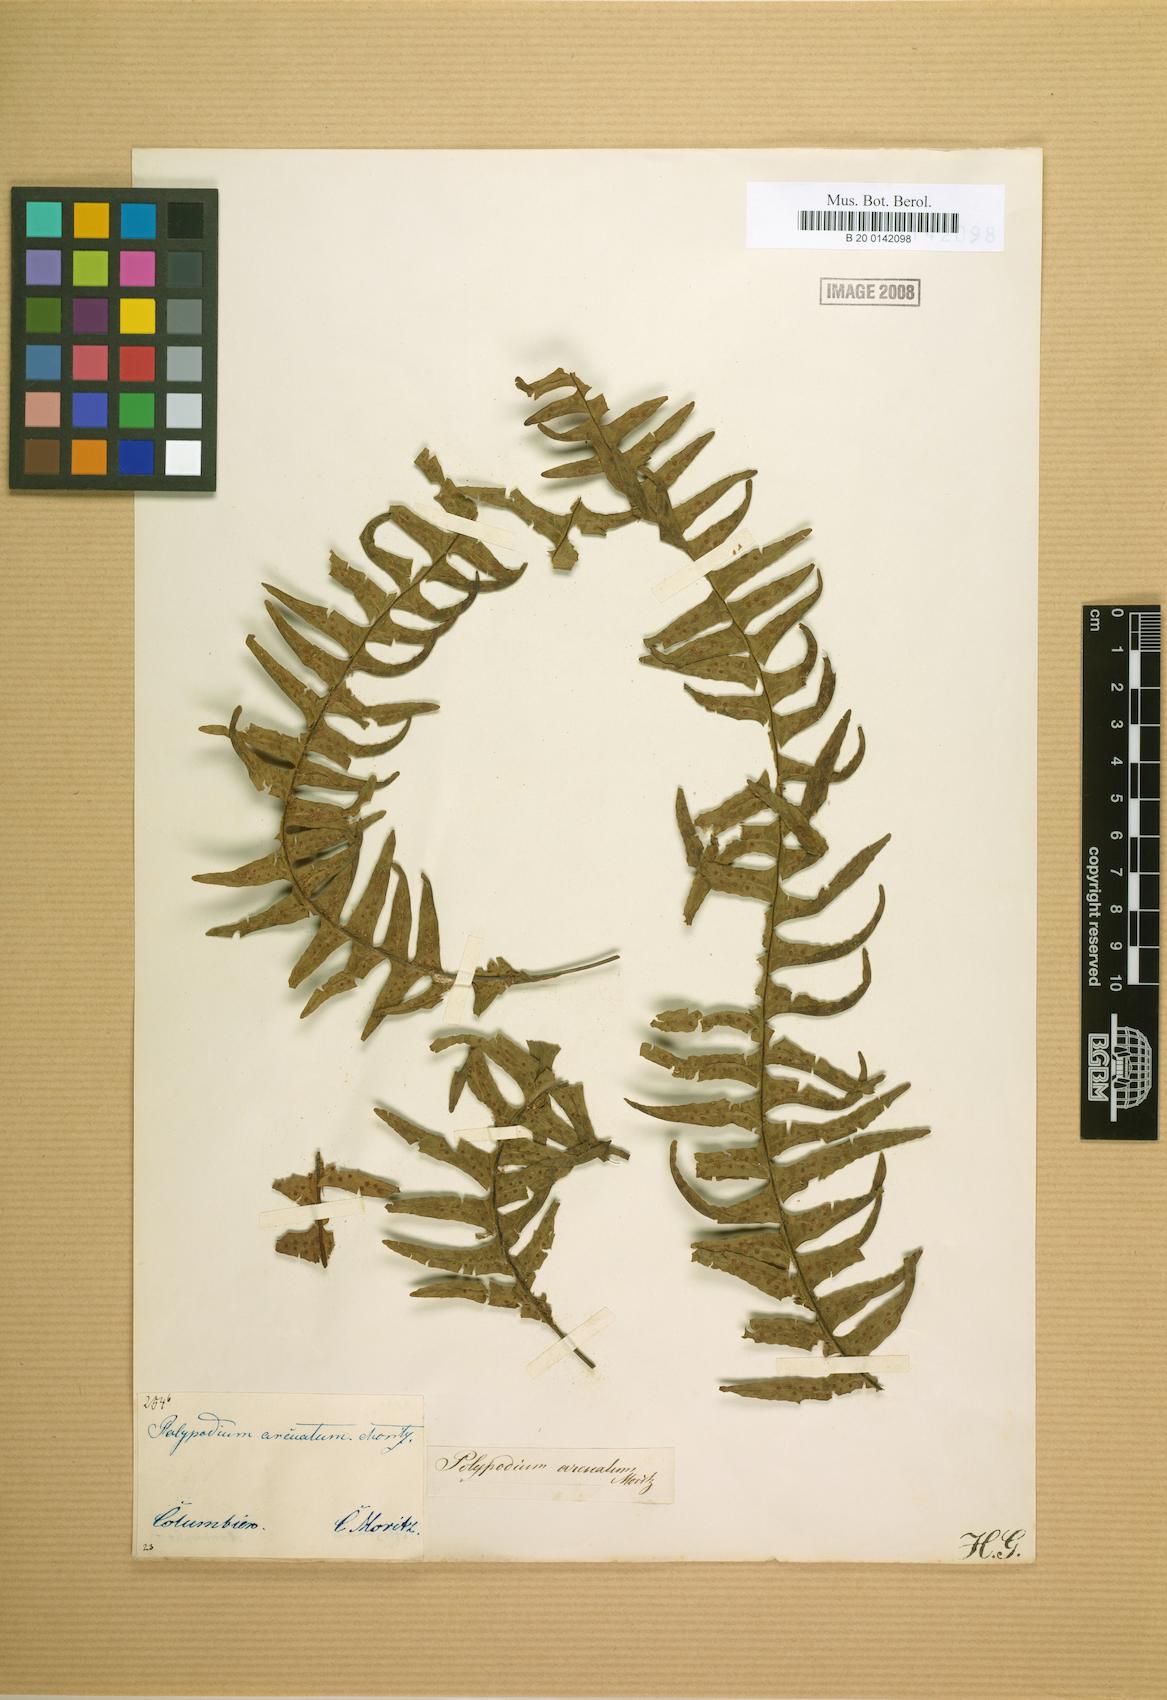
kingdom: Plantae
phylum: Tracheophyta
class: Polypodiopsida
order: Polypodiales
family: Polypodiaceae
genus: Terpsichore
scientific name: Terpsichore chrysleri
